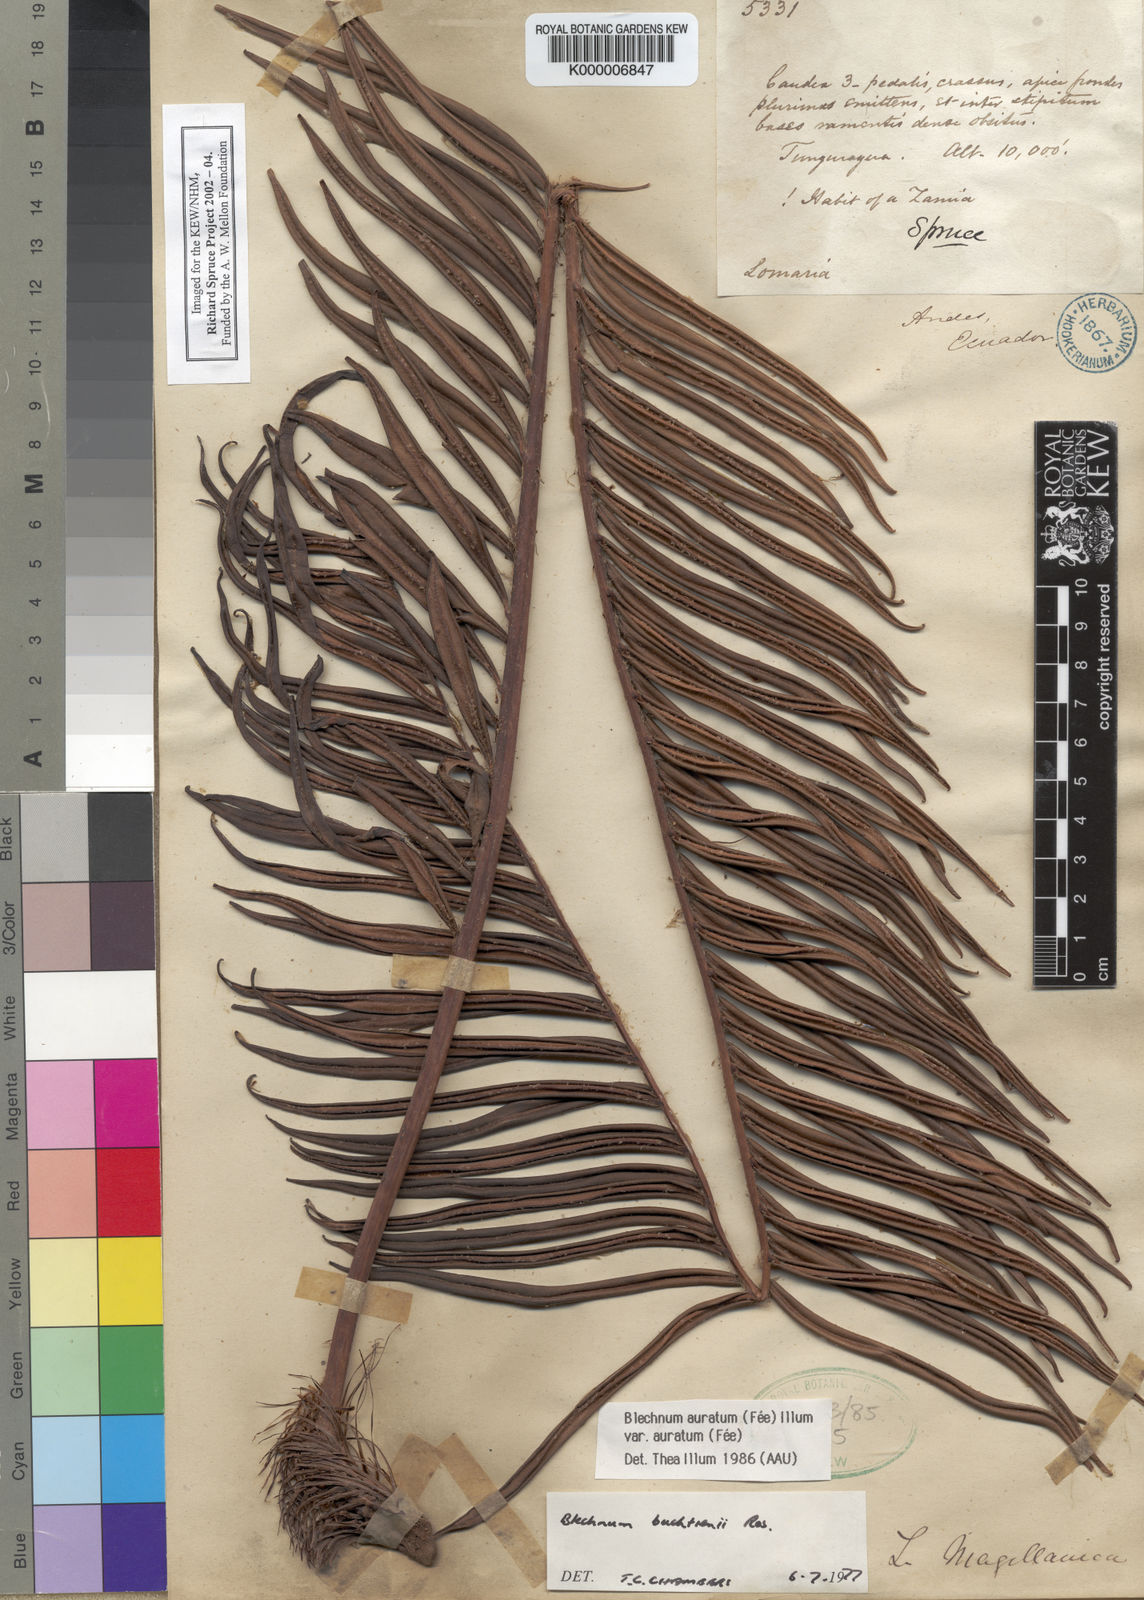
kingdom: Plantae
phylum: Tracheophyta
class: Polypodiopsida
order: Polypodiales
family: Blechnaceae
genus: Blechnum
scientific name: Blechnum
